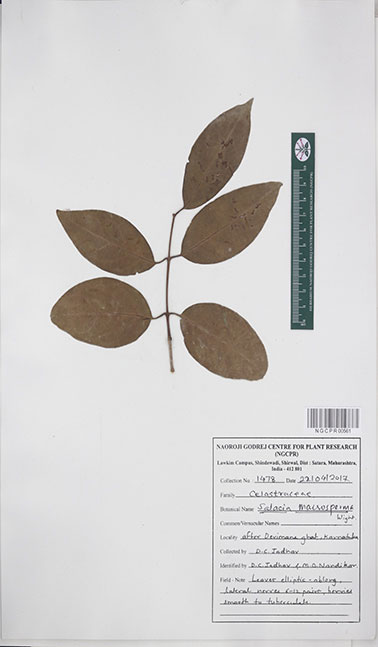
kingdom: Plantae
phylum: Tracheophyta
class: Magnoliopsida
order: Celastrales
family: Celastraceae
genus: Salacia
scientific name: Salacia macrosperma
